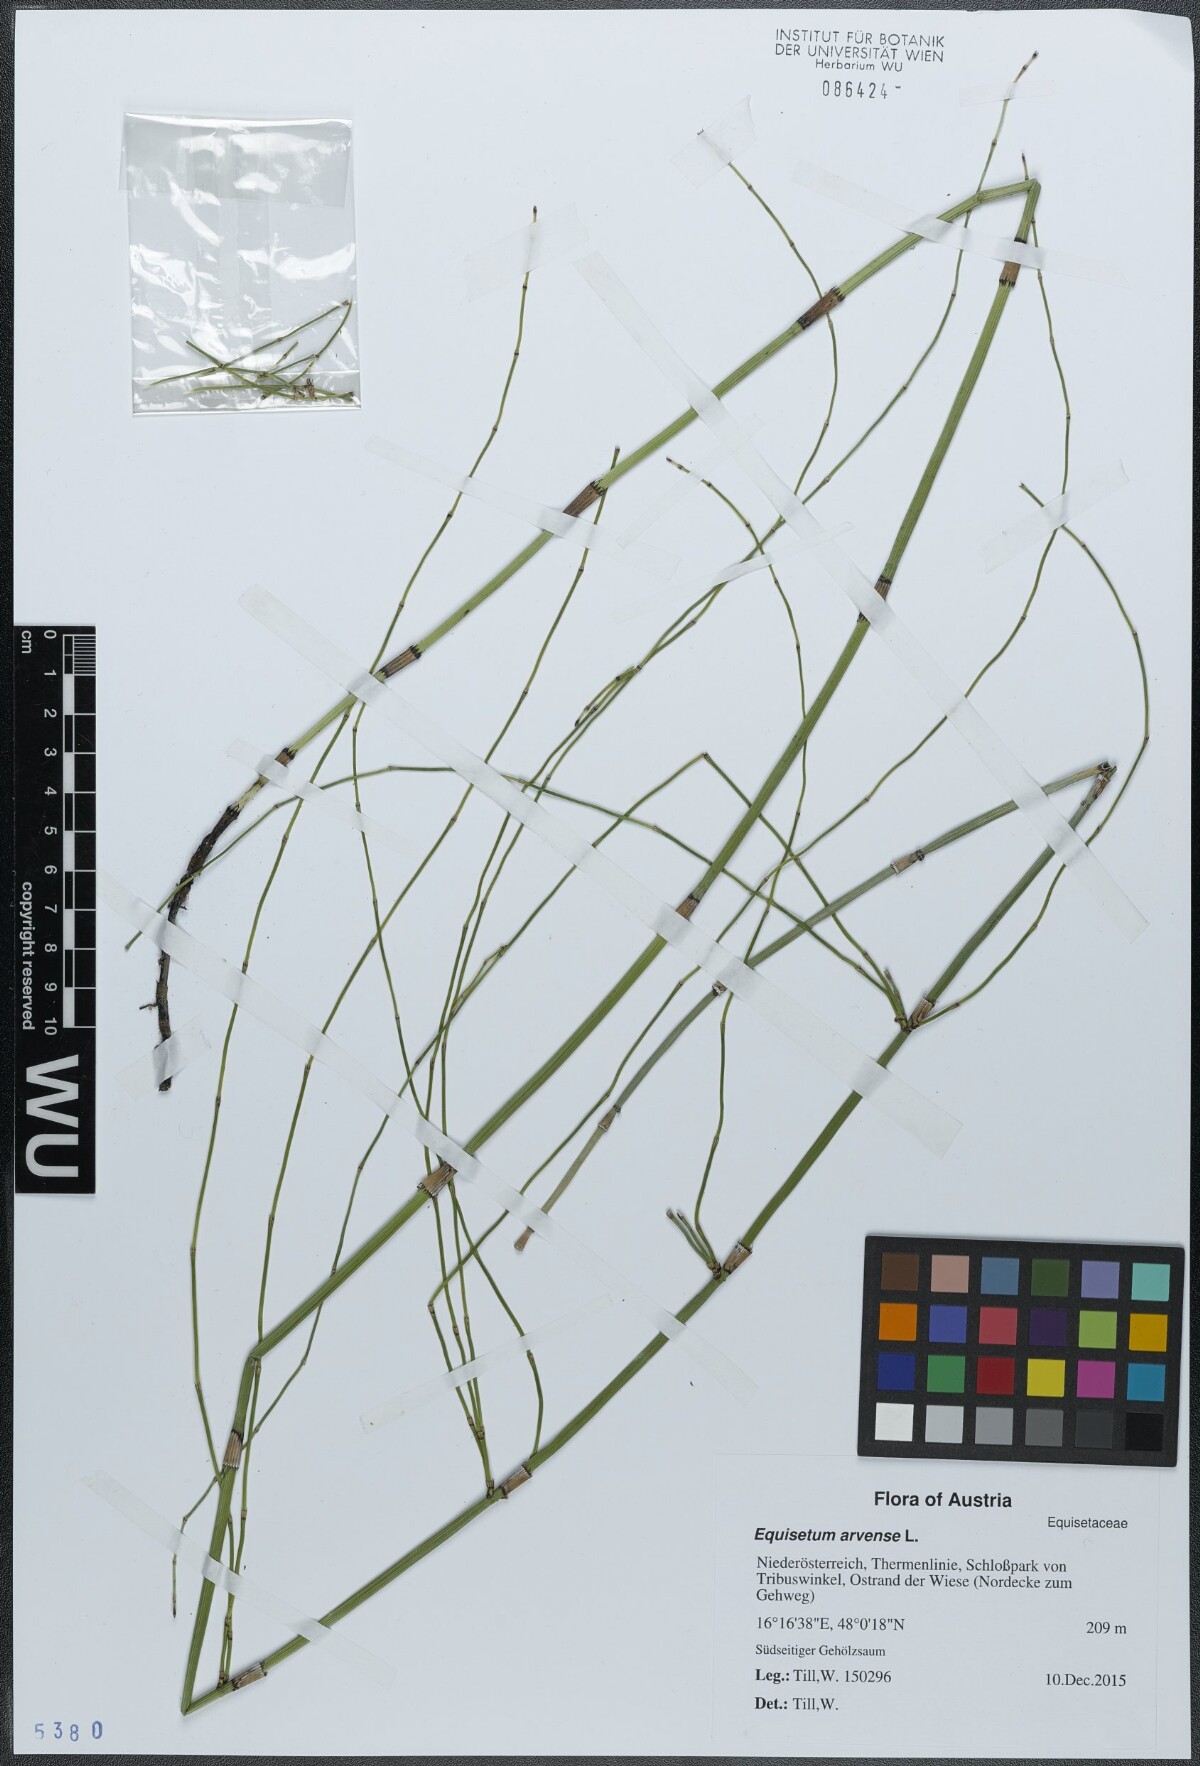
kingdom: Plantae
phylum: Tracheophyta
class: Polypodiopsida
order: Equisetales
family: Equisetaceae
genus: Equisetum
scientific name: Equisetum arvense
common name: Field horsetail
